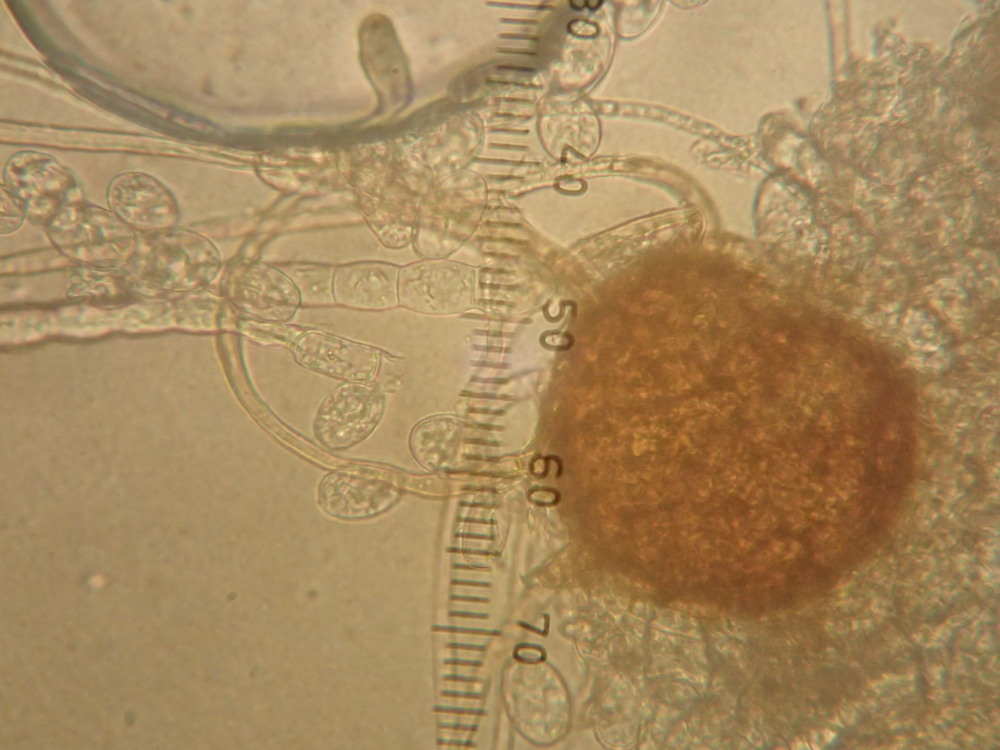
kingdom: Fungi
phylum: Ascomycota
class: Leotiomycetes
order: Helotiales
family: Erysiphaceae
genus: Podosphaera
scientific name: Podosphaera epilobii
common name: dueurt-meldug
